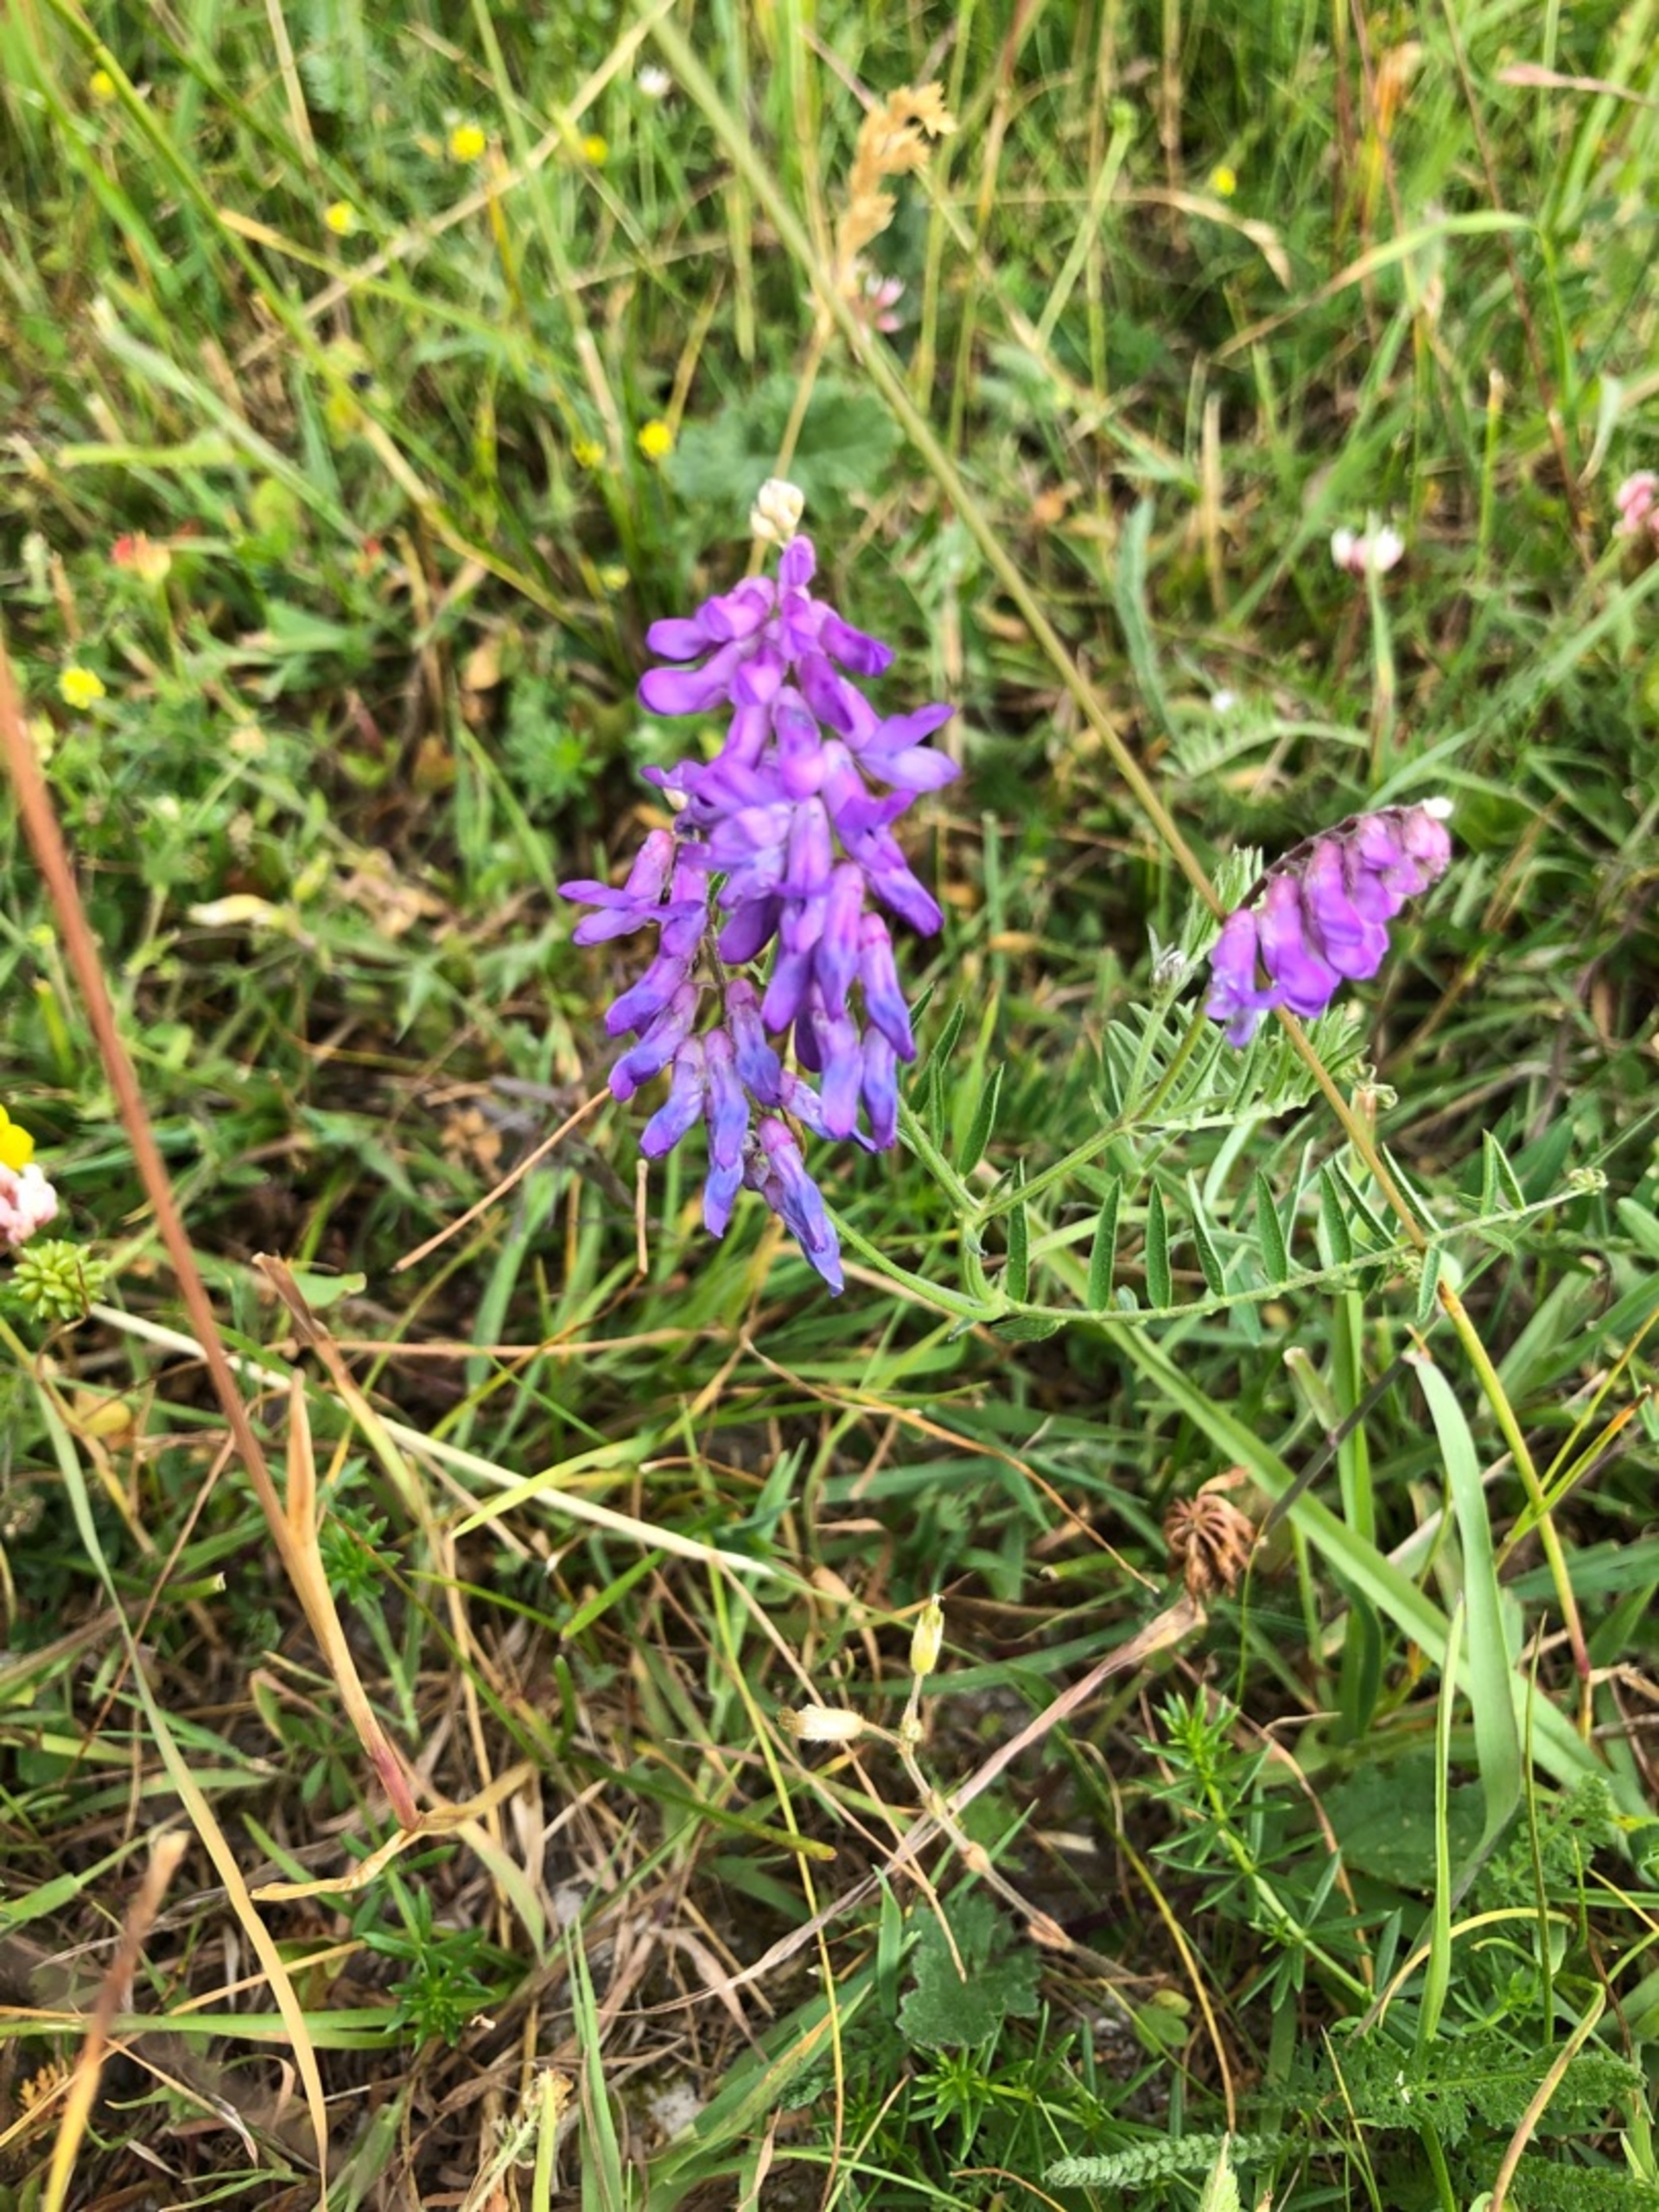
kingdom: Plantae
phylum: Tracheophyta
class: Magnoliopsida
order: Fabales
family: Fabaceae
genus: Vicia
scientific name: Vicia cracca
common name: Muse-vikke
